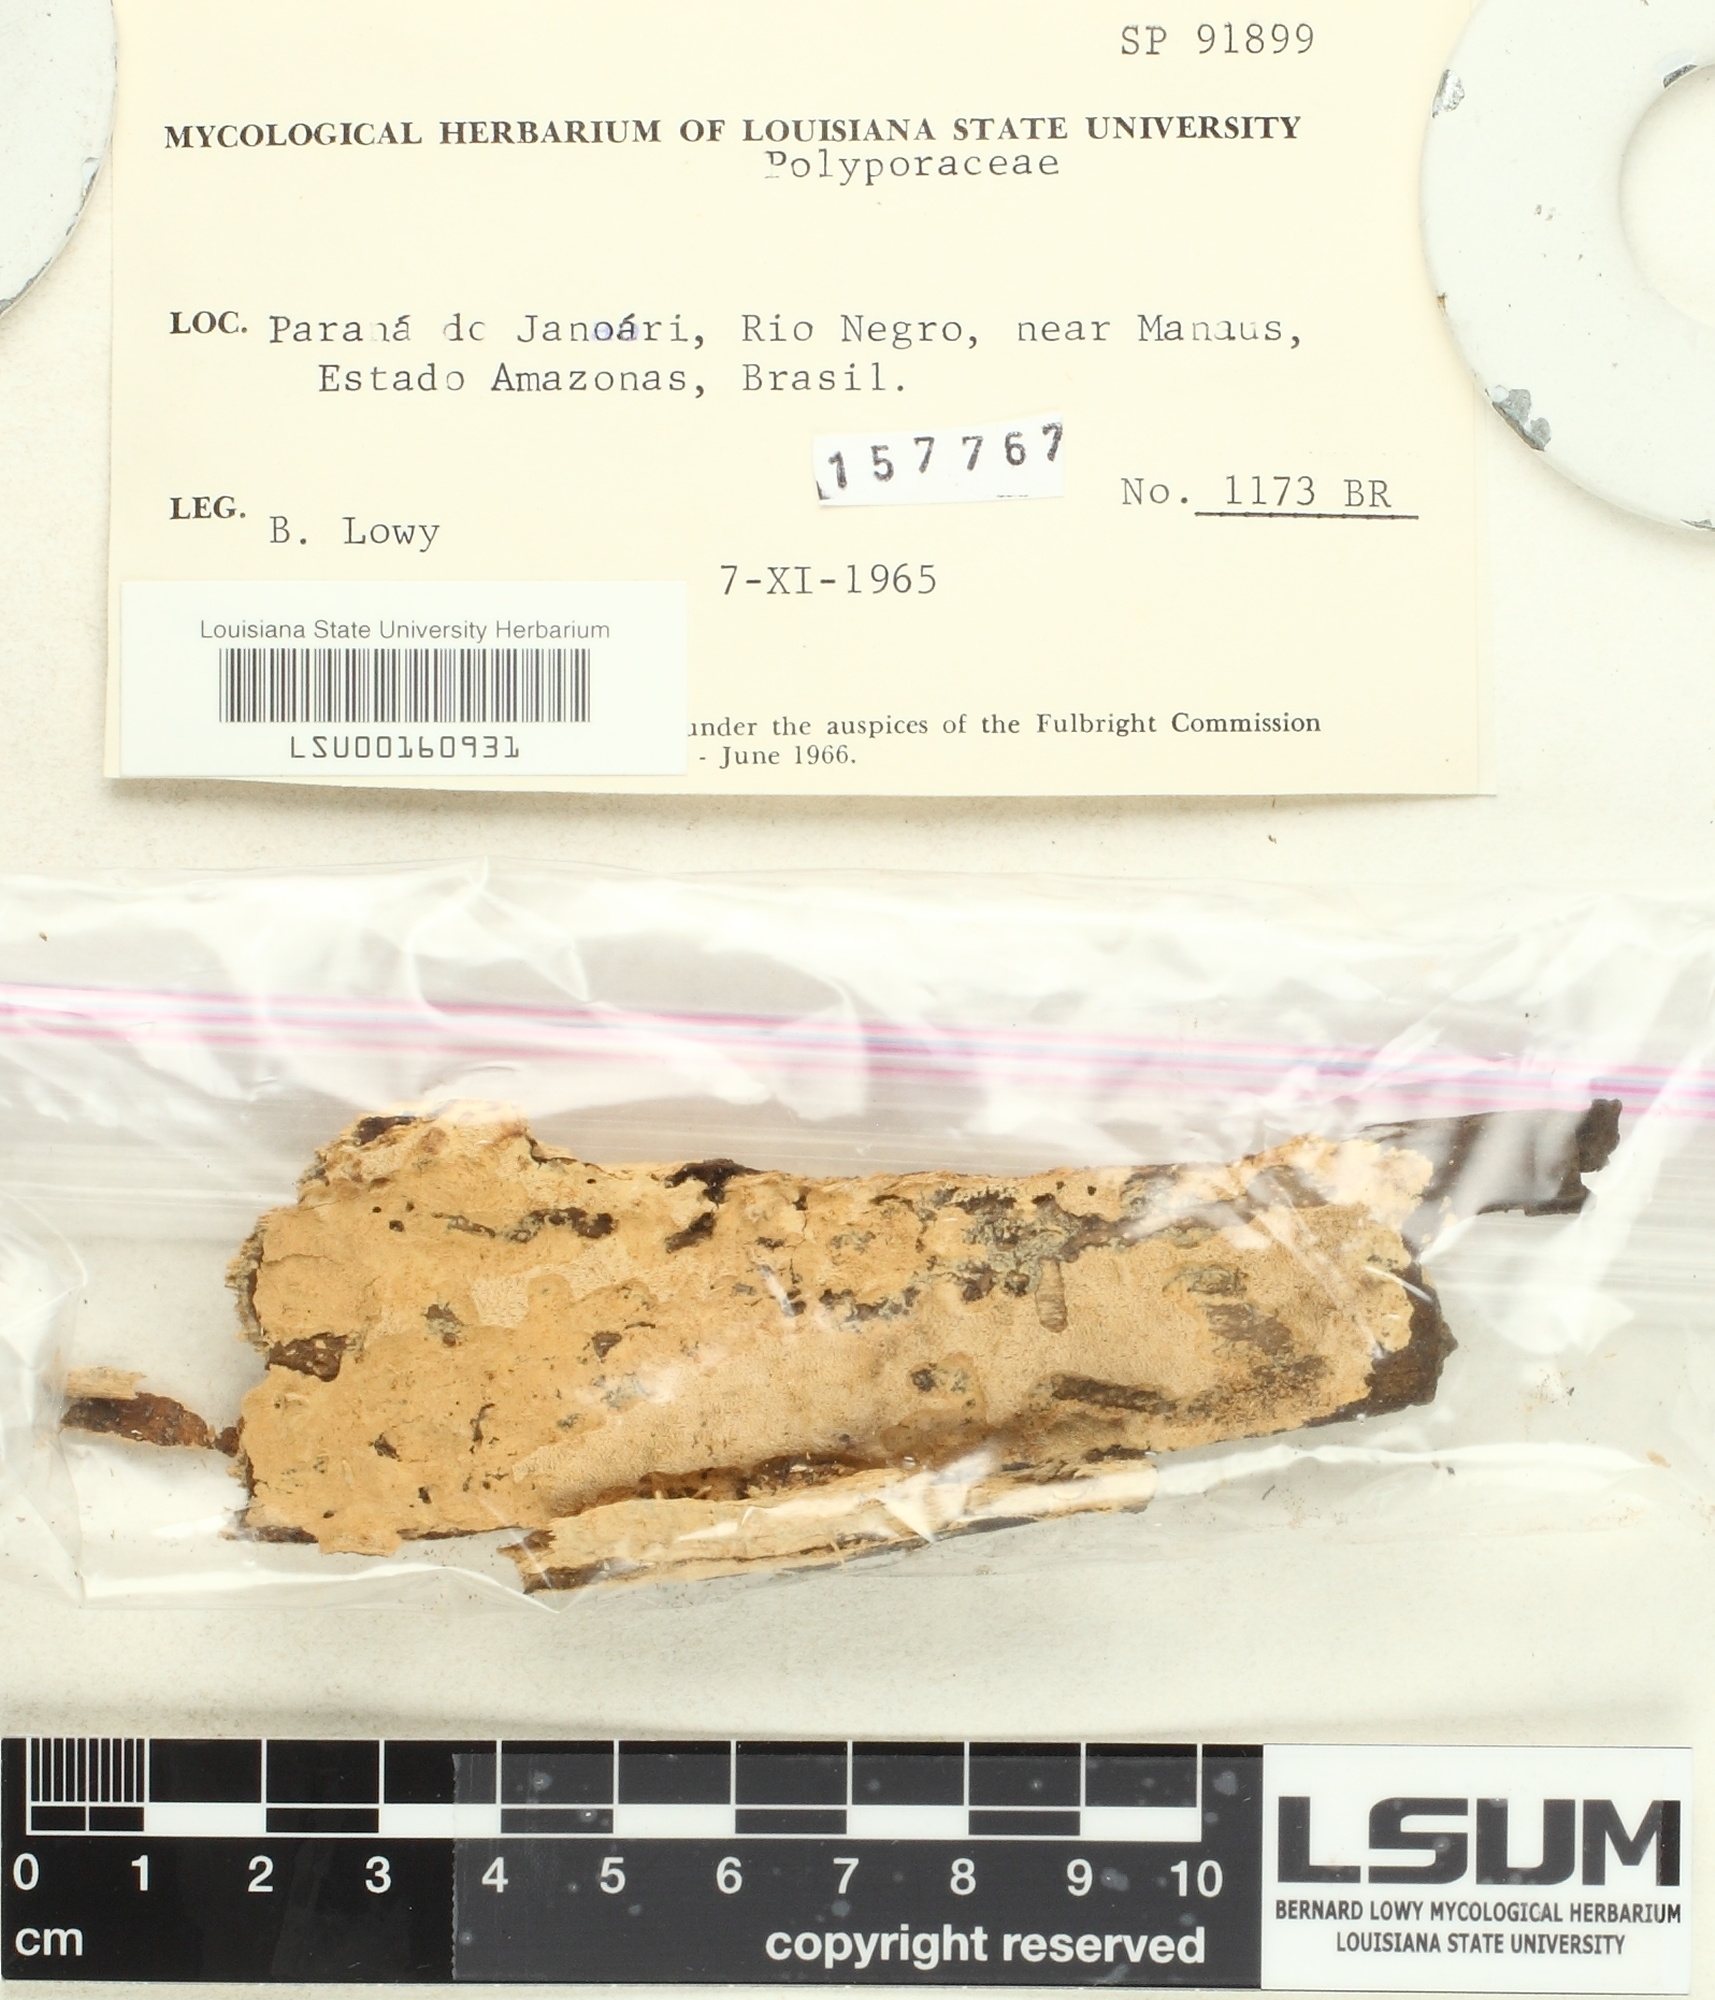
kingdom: Fungi
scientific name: Fungi
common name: Fungi
